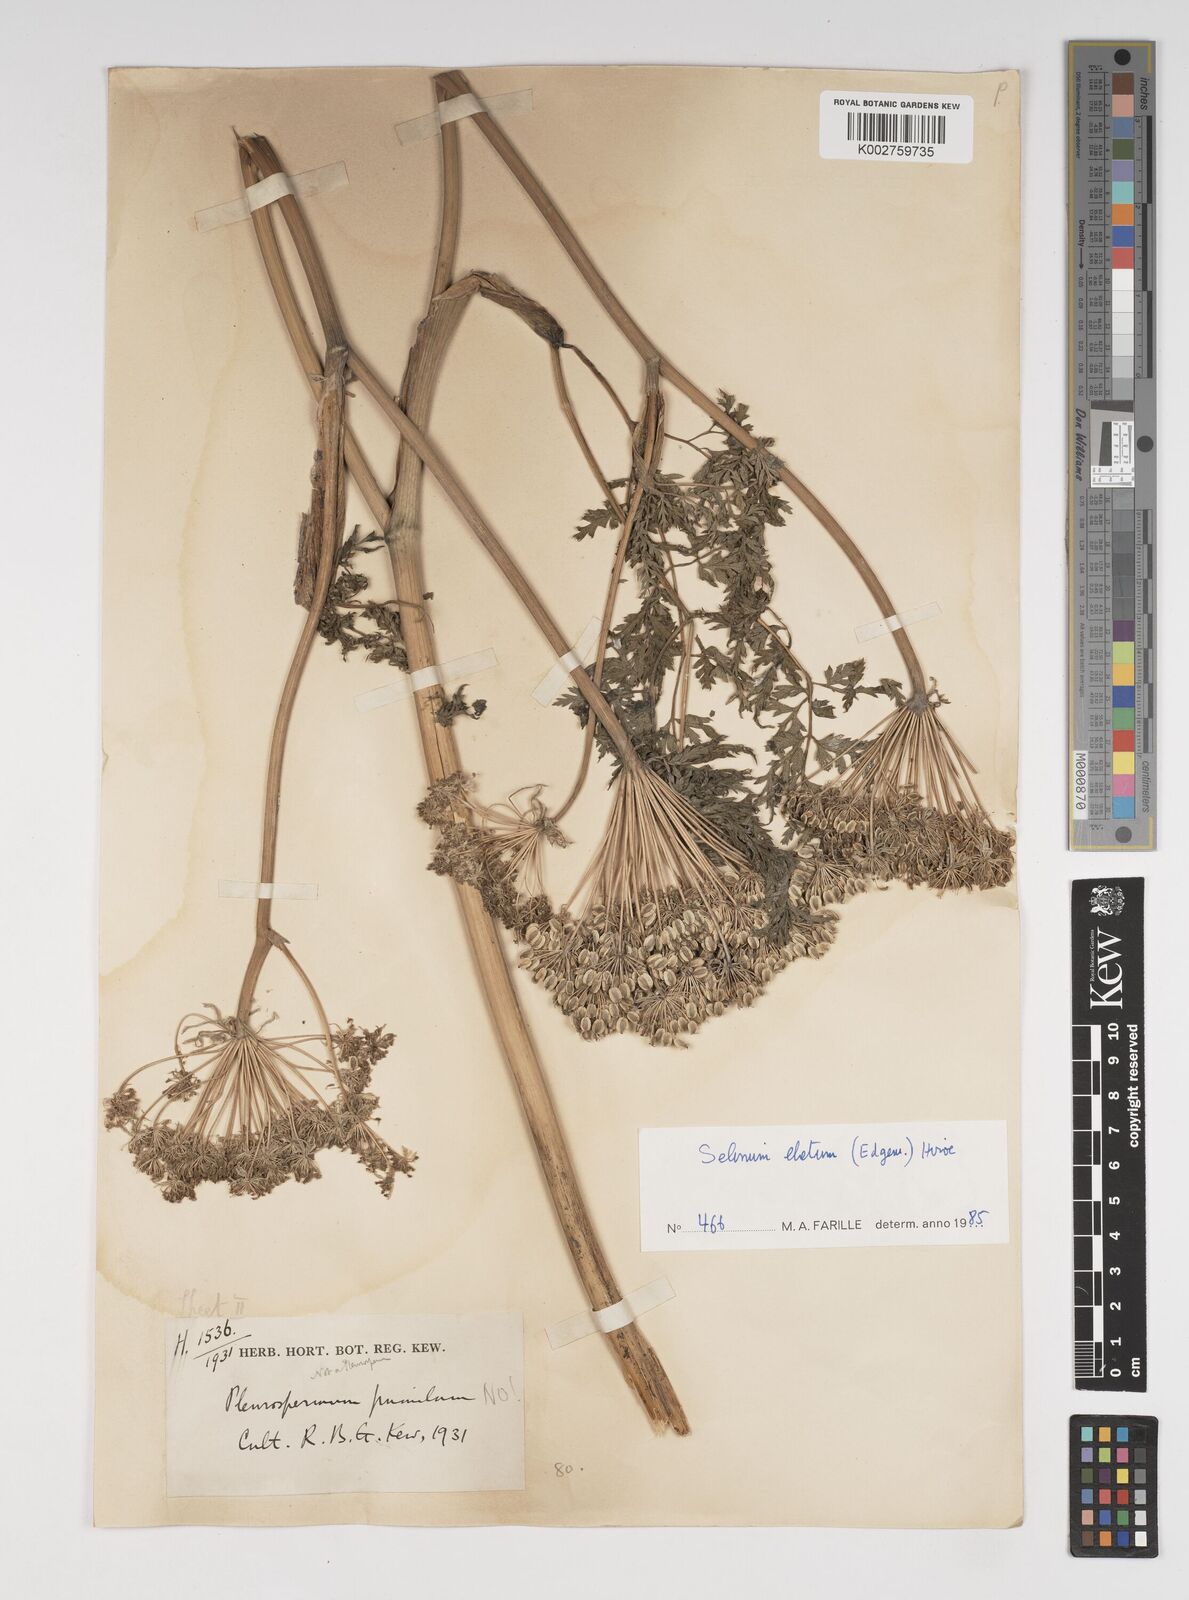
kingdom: Plantae
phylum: Tracheophyta
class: Magnoliopsida
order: Apiales
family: Apiaceae
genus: Ligusticopsis
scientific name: Ligusticopsis wallichiana
